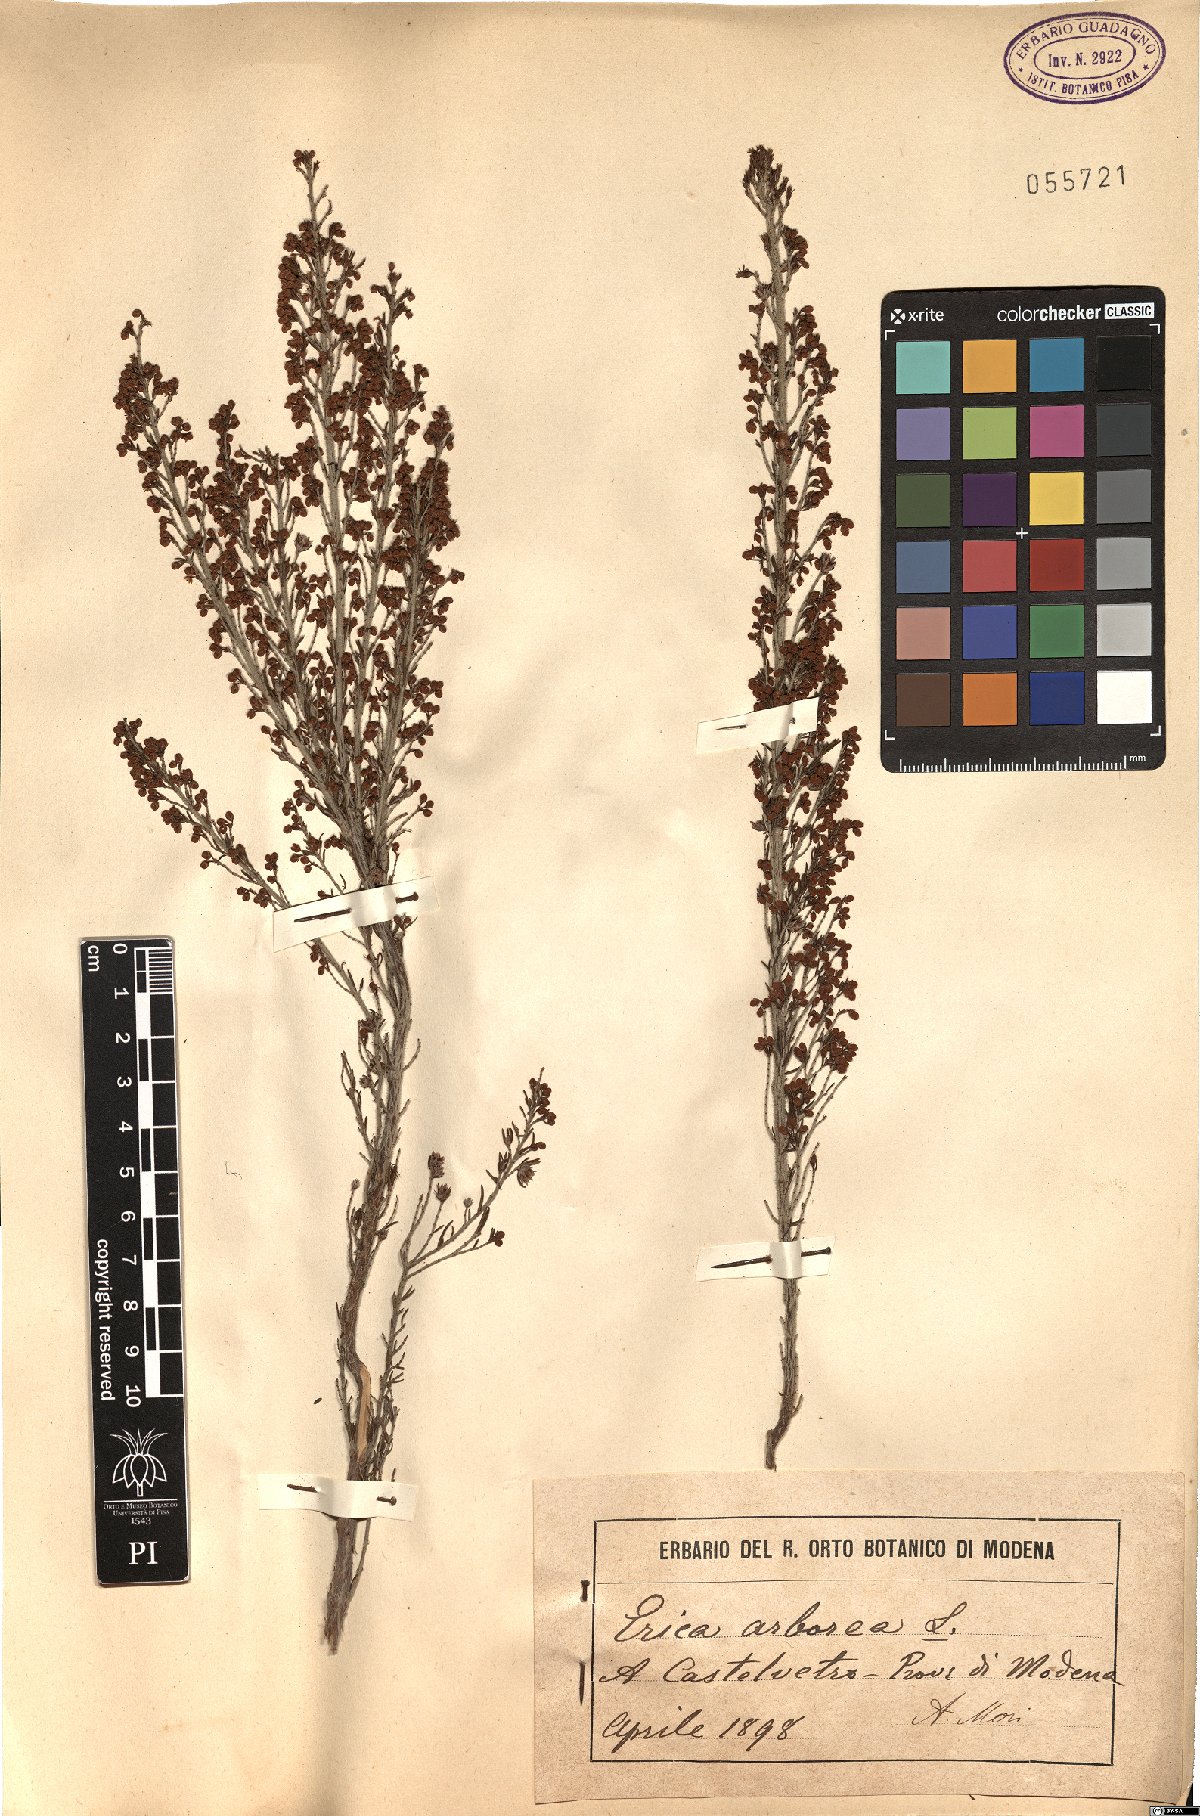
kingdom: Plantae
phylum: Tracheophyta
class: Magnoliopsida
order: Ericales
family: Ericaceae
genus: Erica
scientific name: Erica arborea
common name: Tree heath
